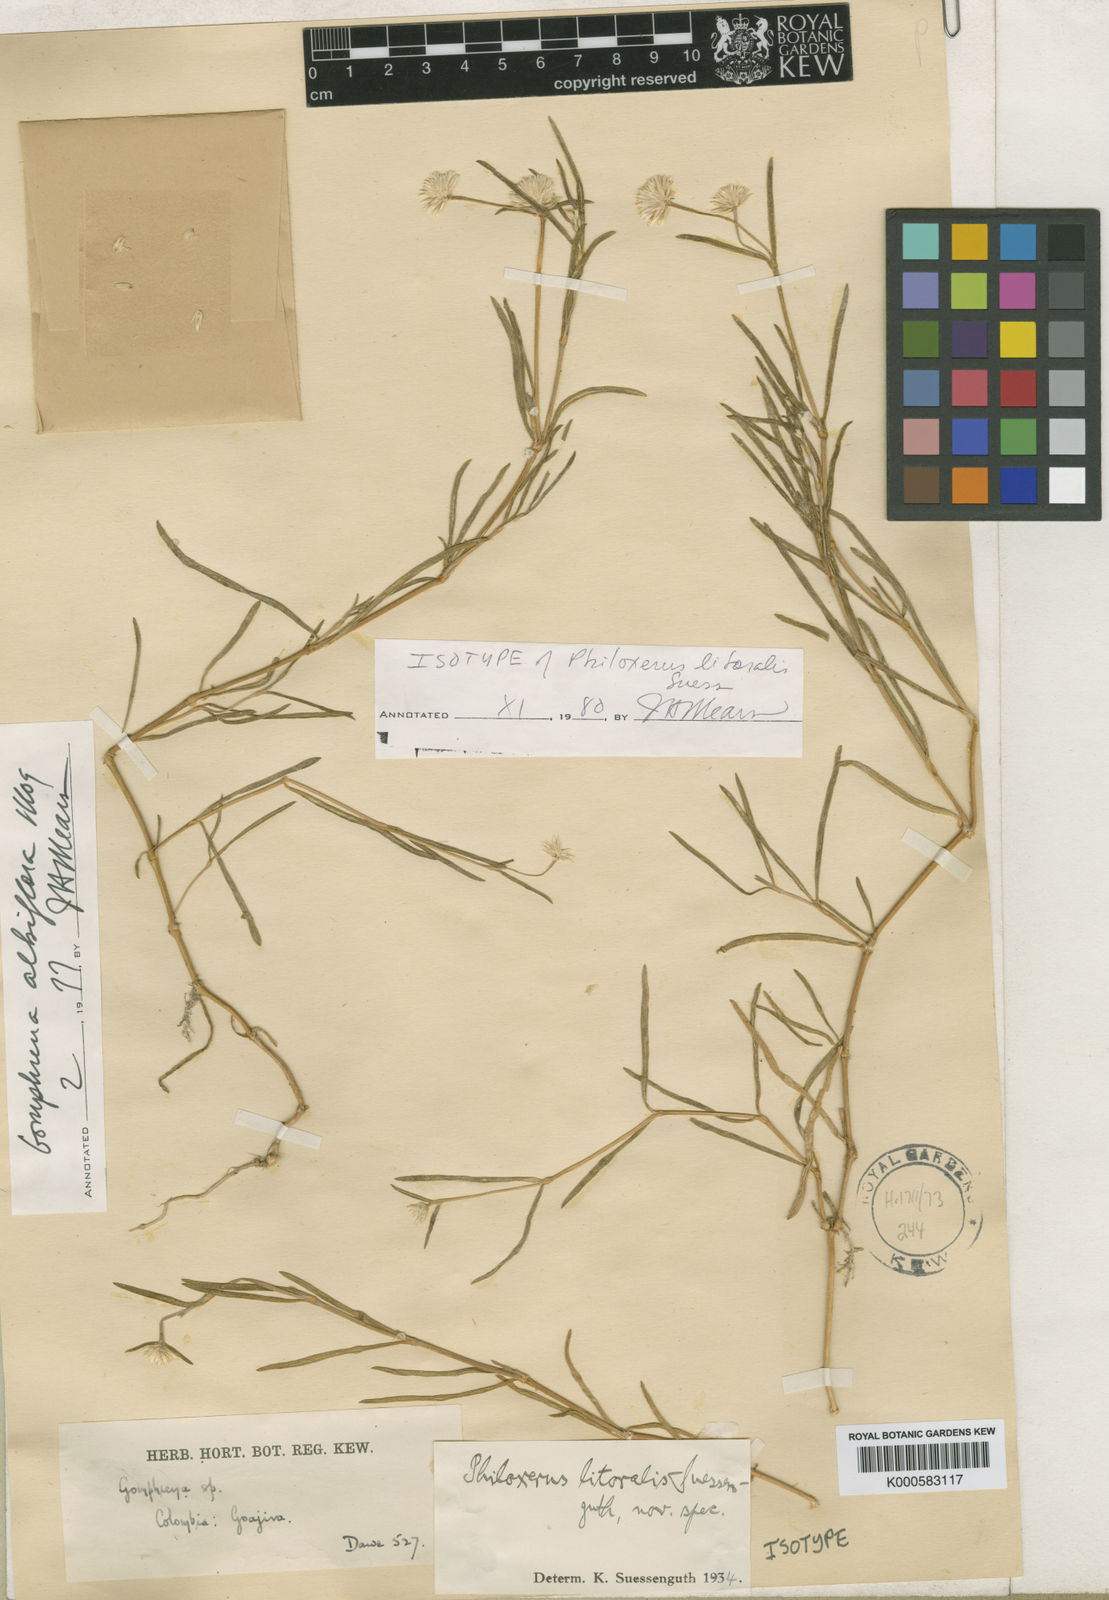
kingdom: Plantae
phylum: Tracheophyta
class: Magnoliopsida
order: Caryophyllales
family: Amaranthaceae
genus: Gomphrena
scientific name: Gomphrena vermicularis
